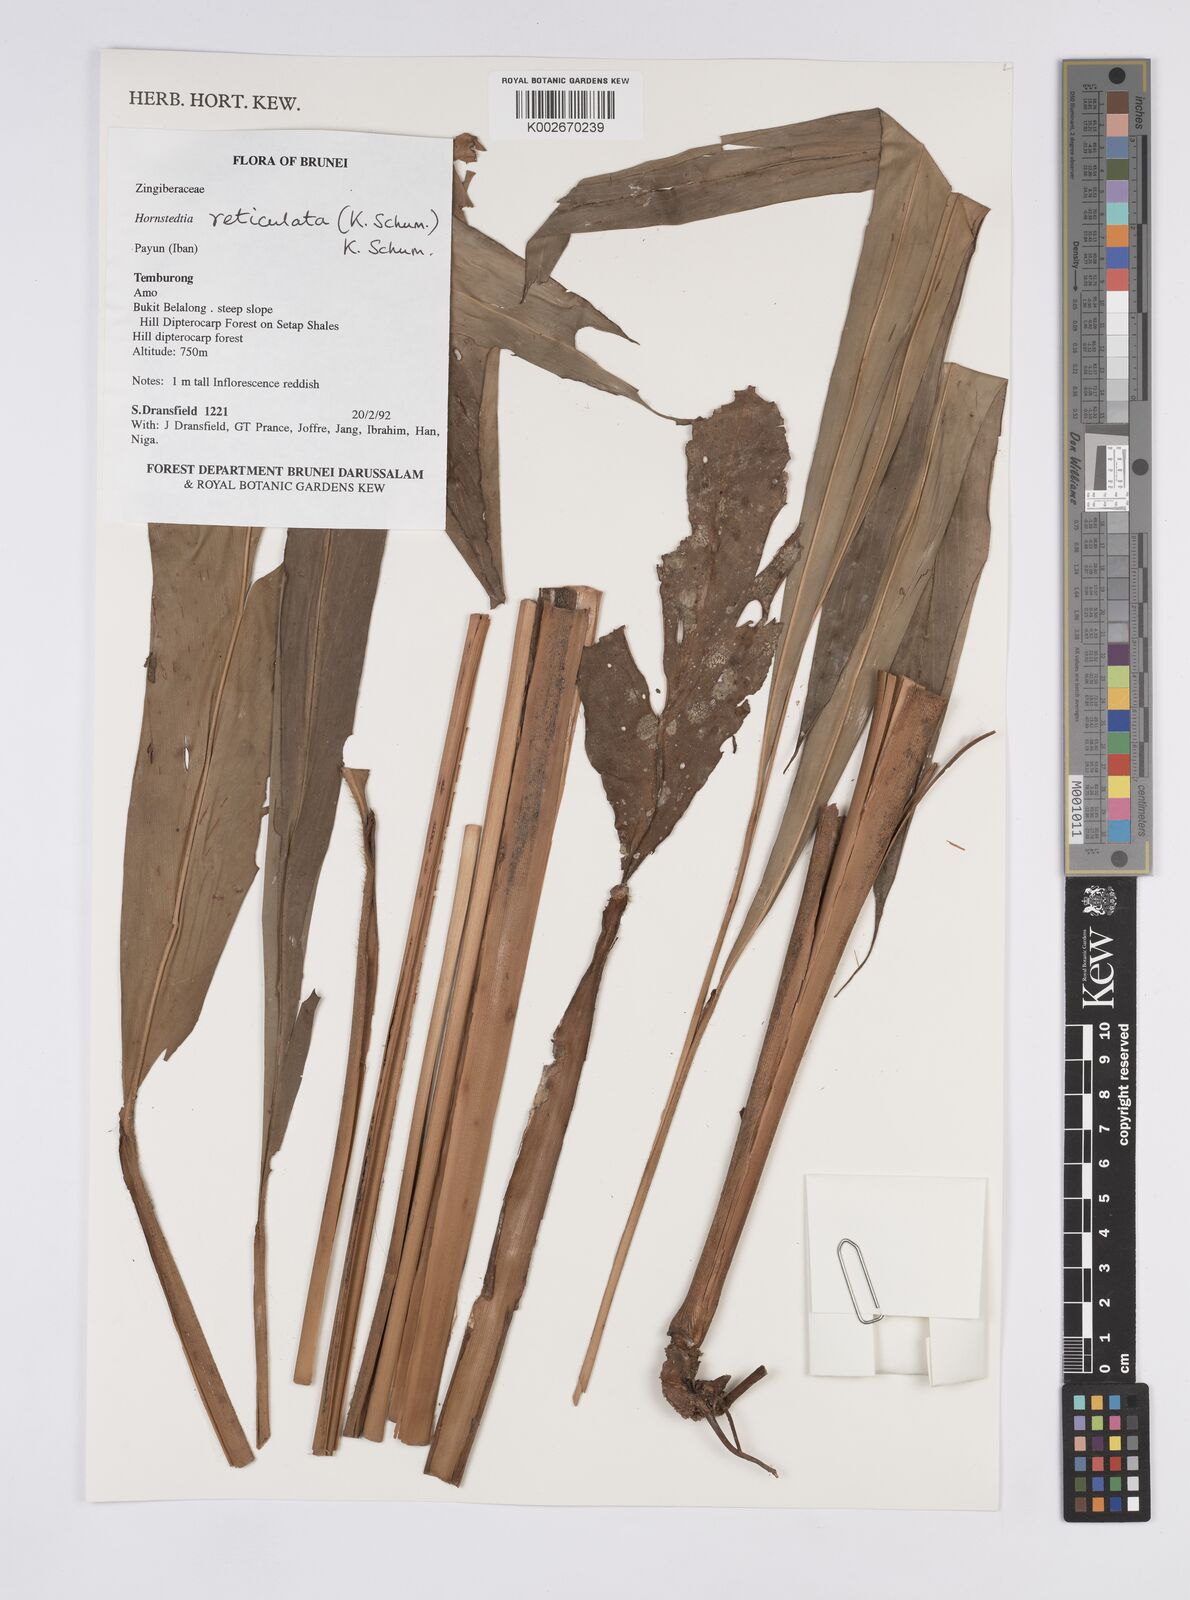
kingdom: Plantae
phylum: Tracheophyta
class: Liliopsida
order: Zingiberales
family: Zingiberaceae
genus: Hornstedtia
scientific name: Hornstedtia reticulata
